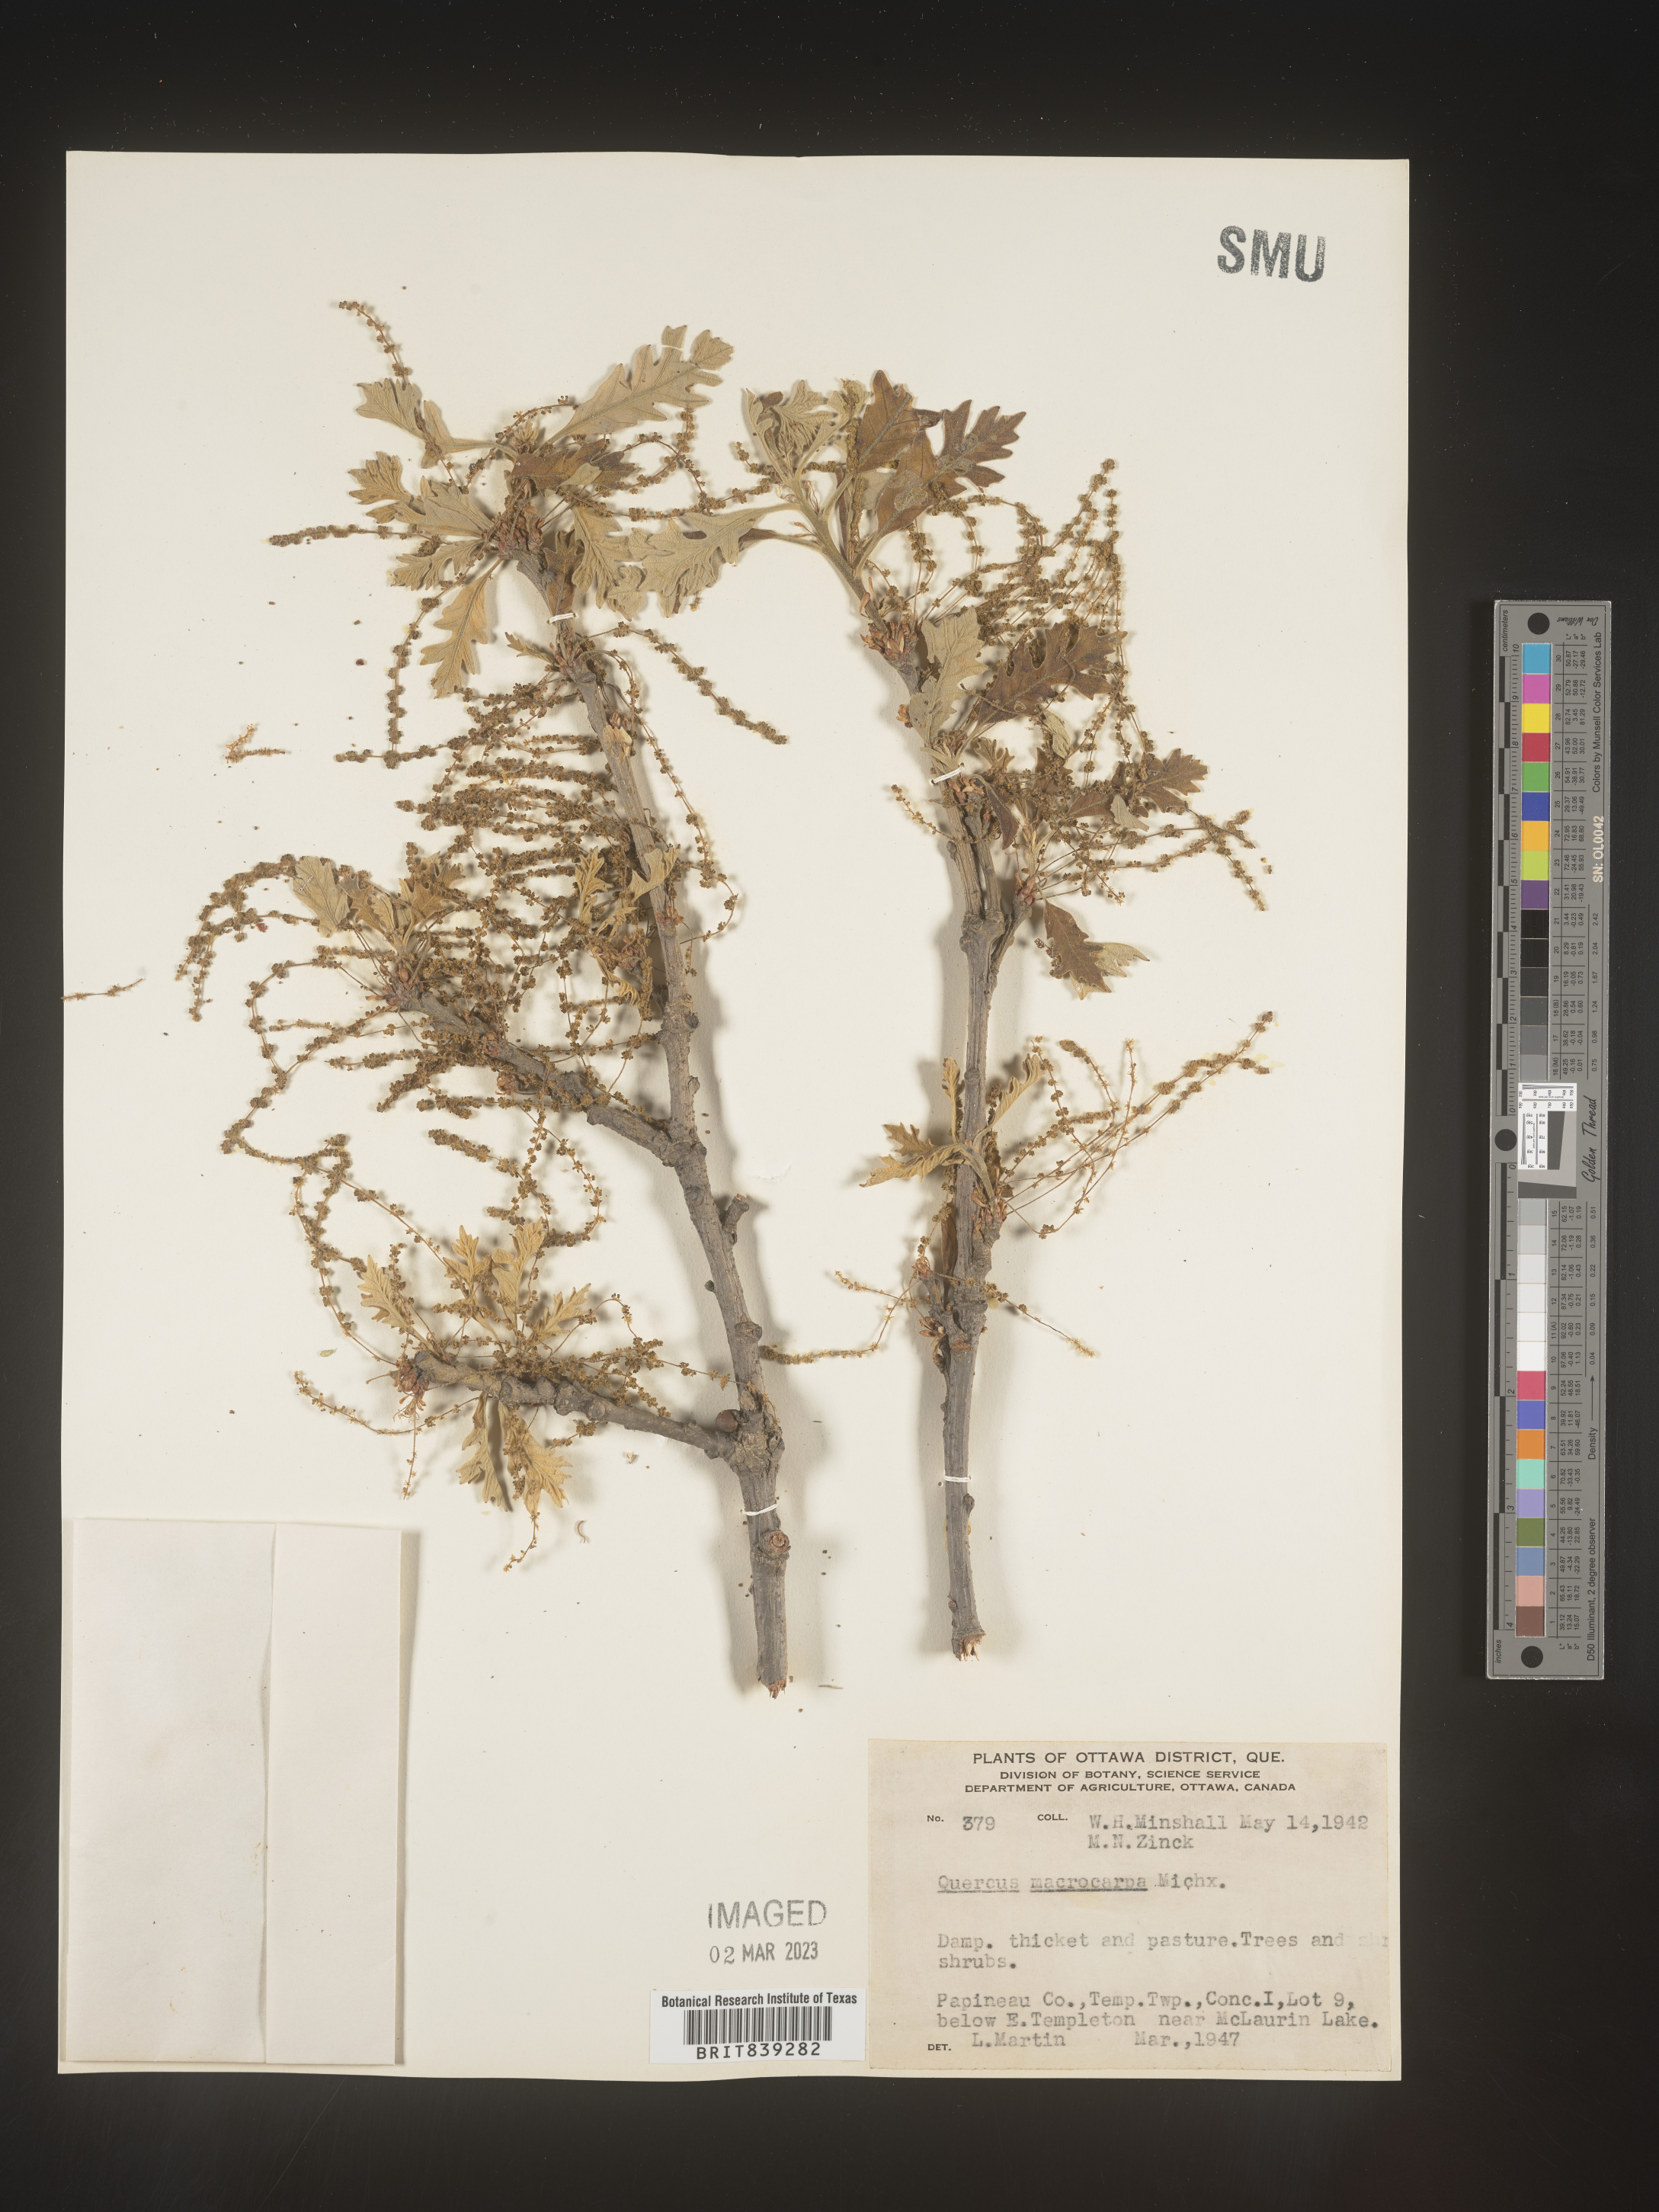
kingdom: Plantae
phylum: Tracheophyta
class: Magnoliopsida
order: Fagales
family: Fagaceae
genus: Quercus
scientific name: Quercus macrocarpa
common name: Bur oak
